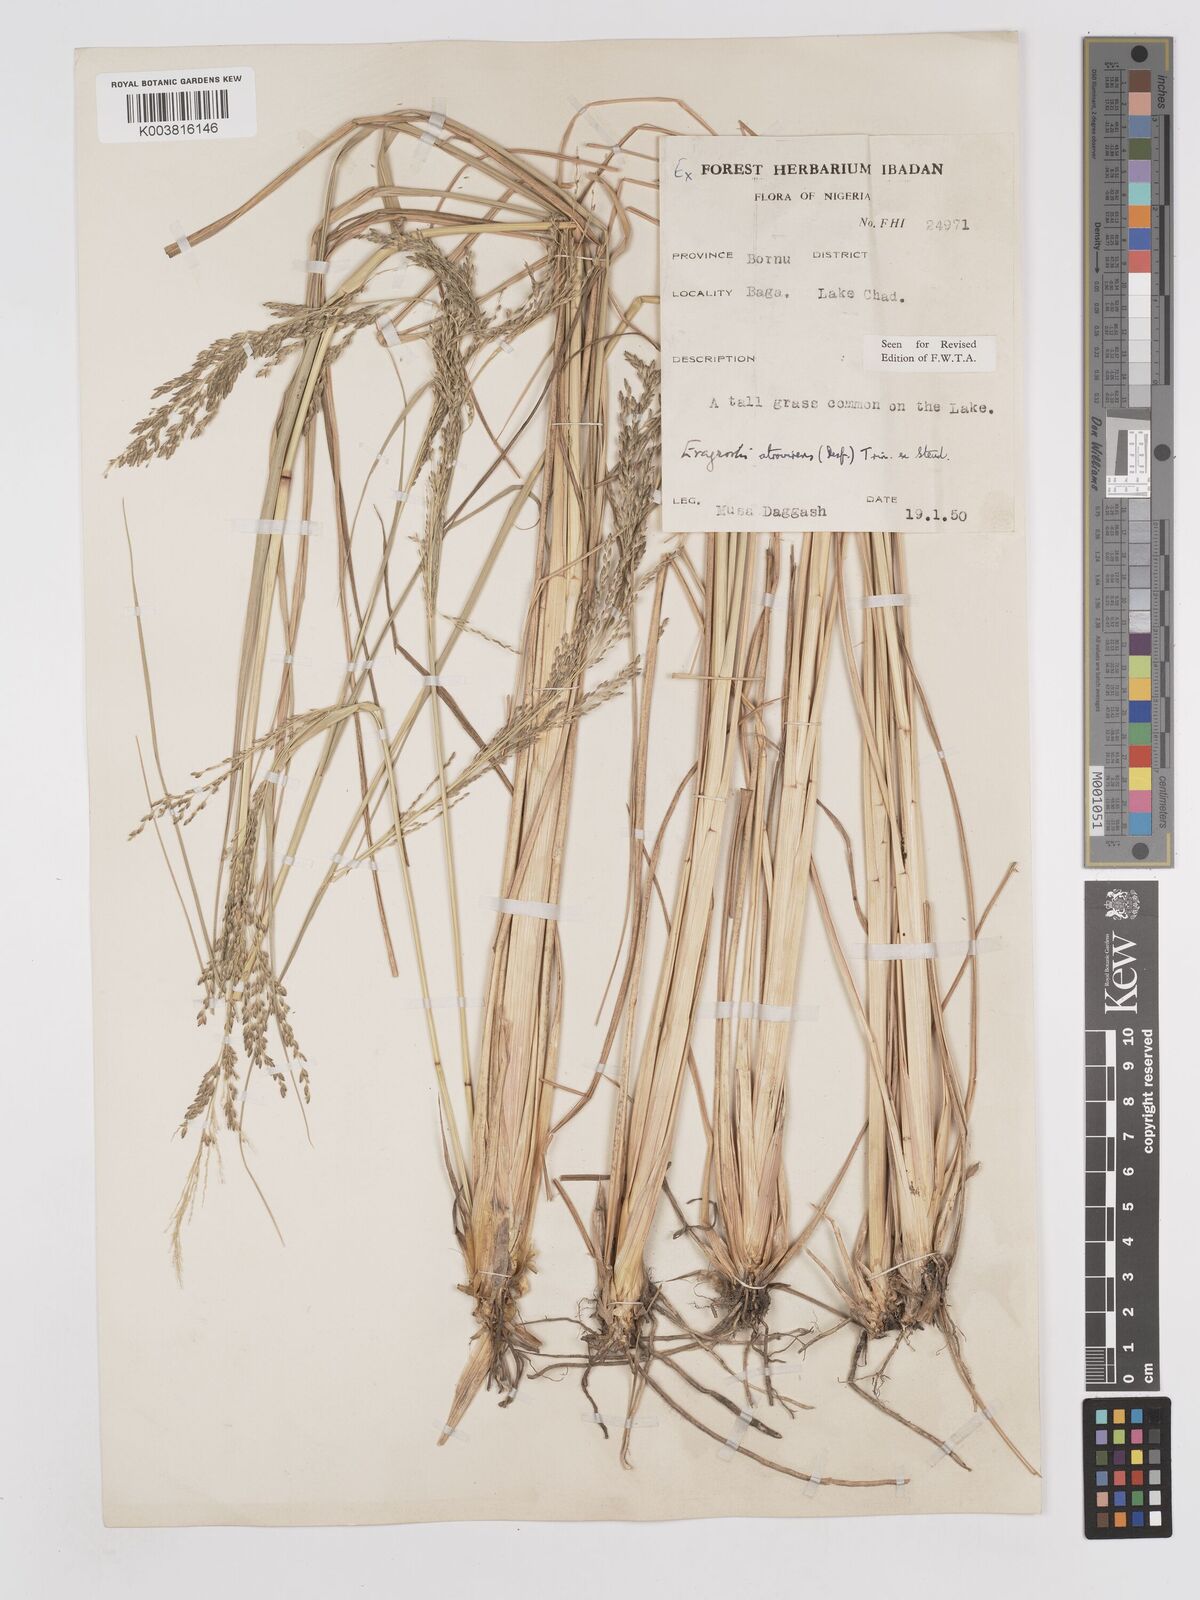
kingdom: Plantae
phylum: Tracheophyta
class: Liliopsida
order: Poales
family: Poaceae
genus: Eragrostis
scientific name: Eragrostis atrovirens
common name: Thalia lovegrass
